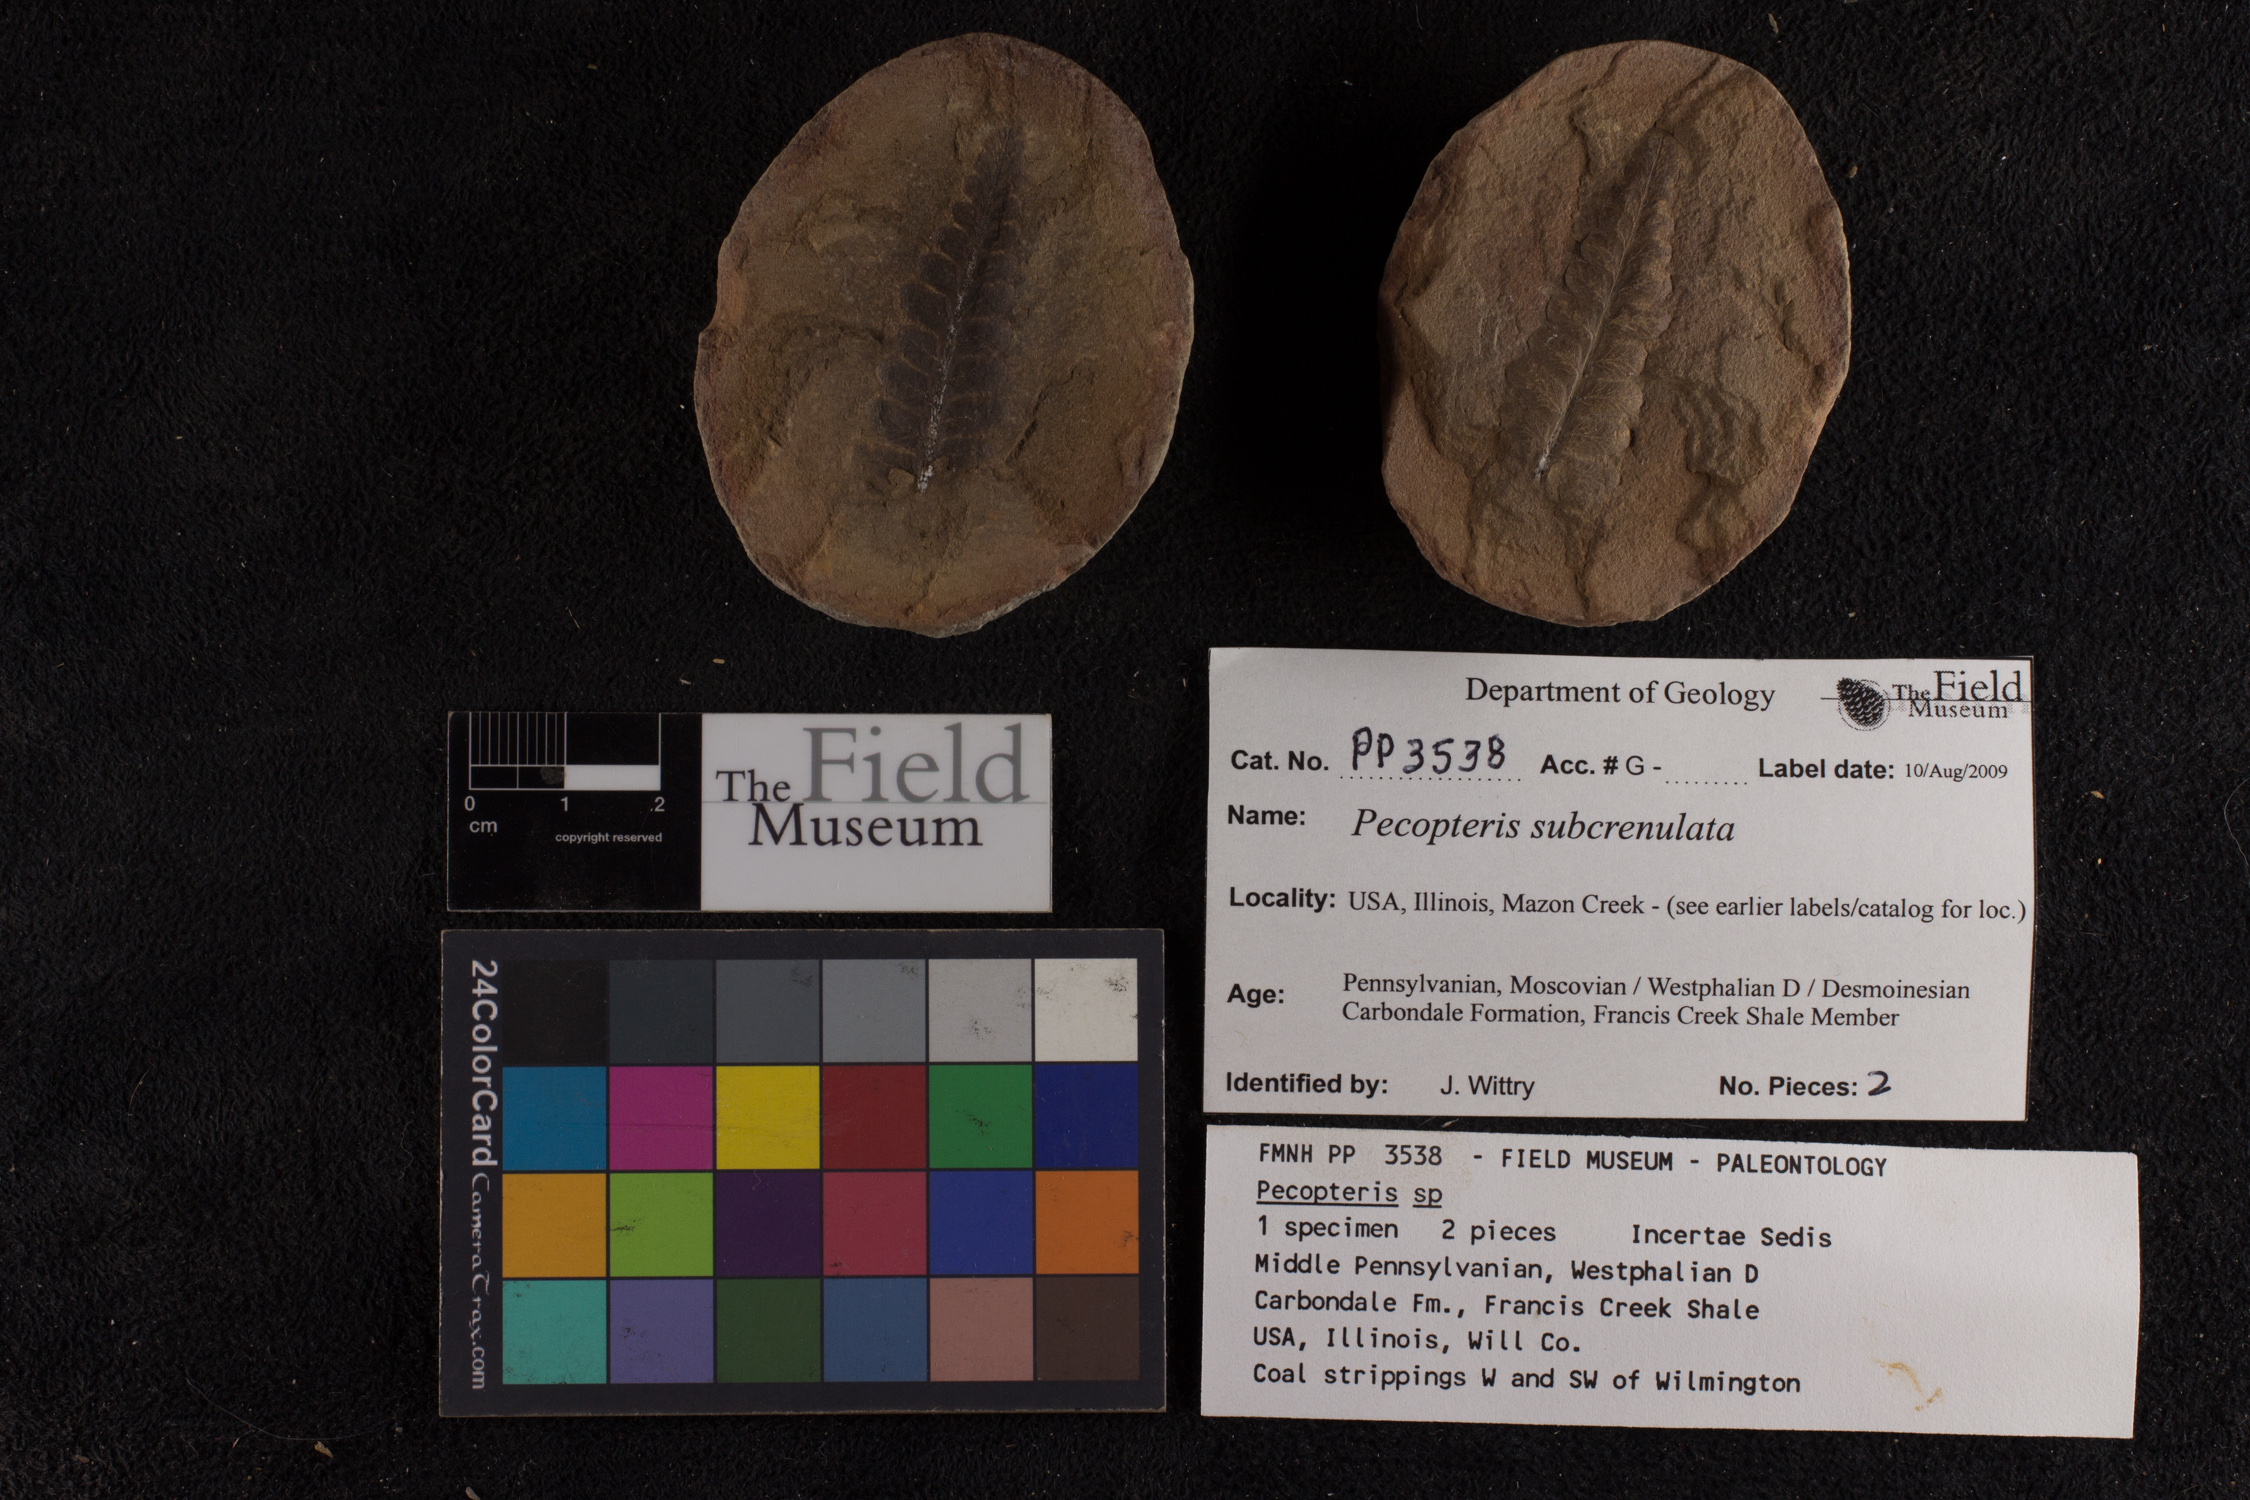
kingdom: Plantae
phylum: Tracheophyta
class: Polypodiopsida
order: Marattiales
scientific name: Marattiales
